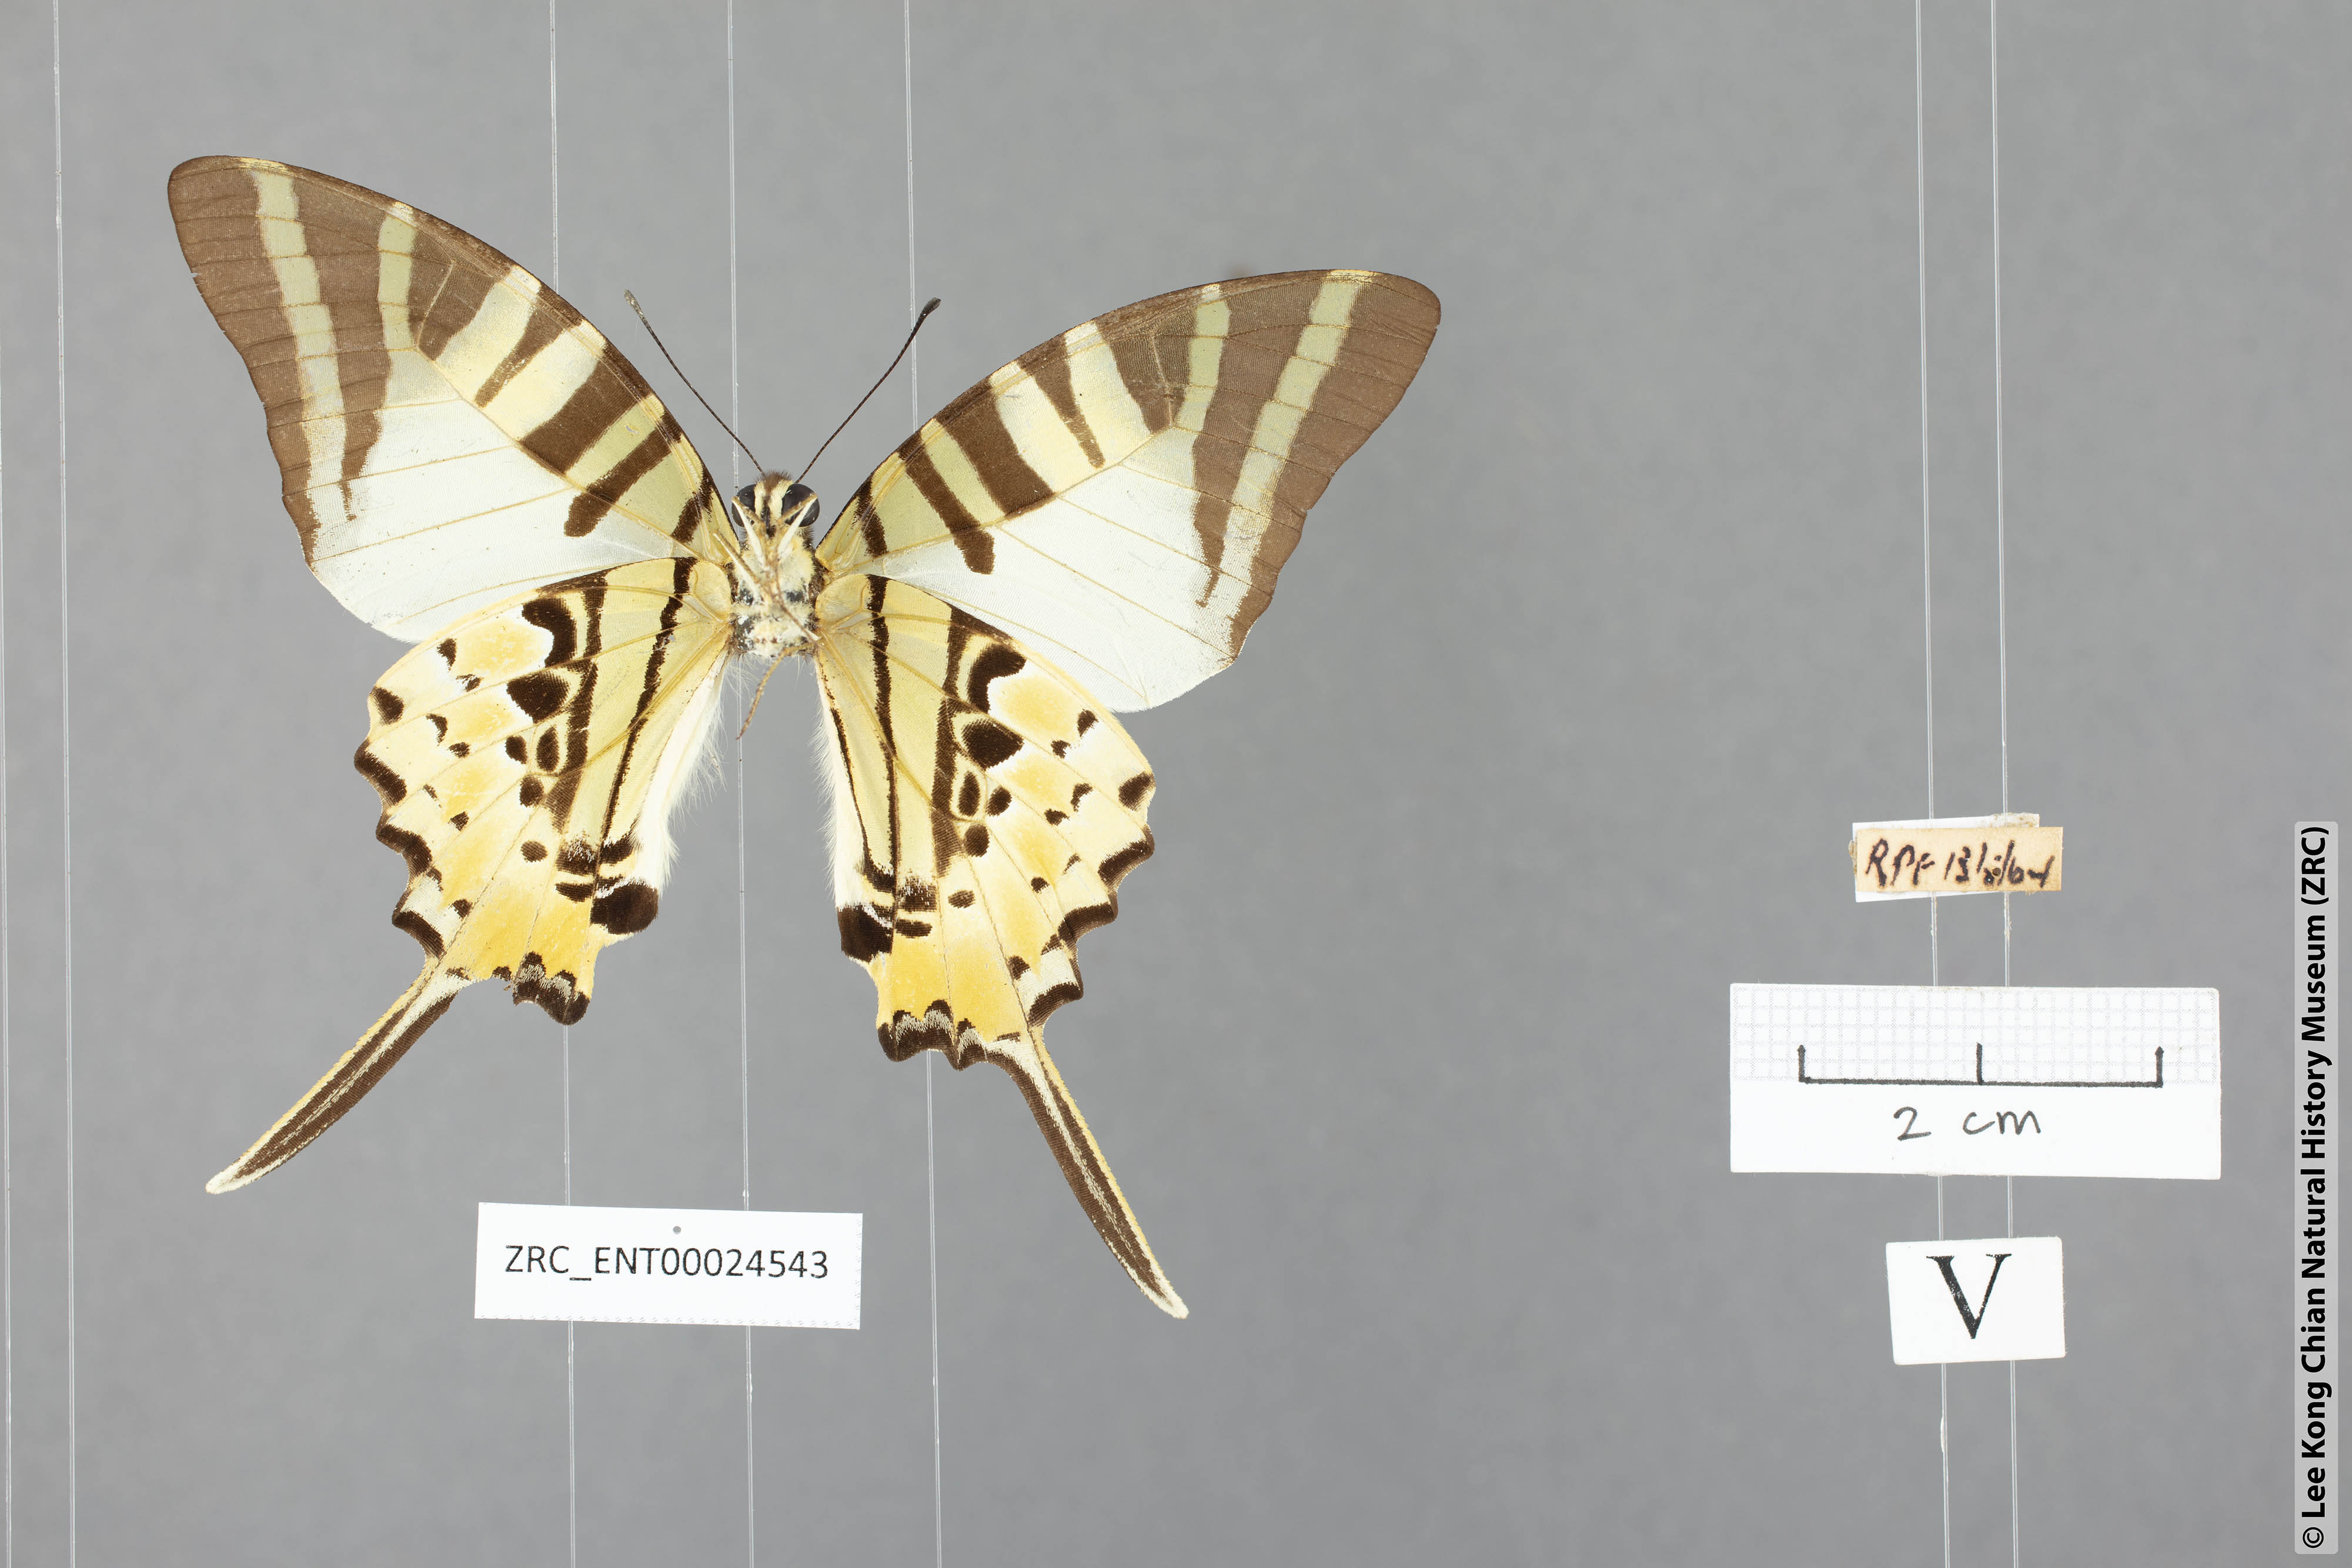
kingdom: Animalia
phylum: Arthropoda
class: Insecta
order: Lepidoptera
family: Papilionidae
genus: Graphium
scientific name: Graphium antiphates
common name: Fivebar swordtail
